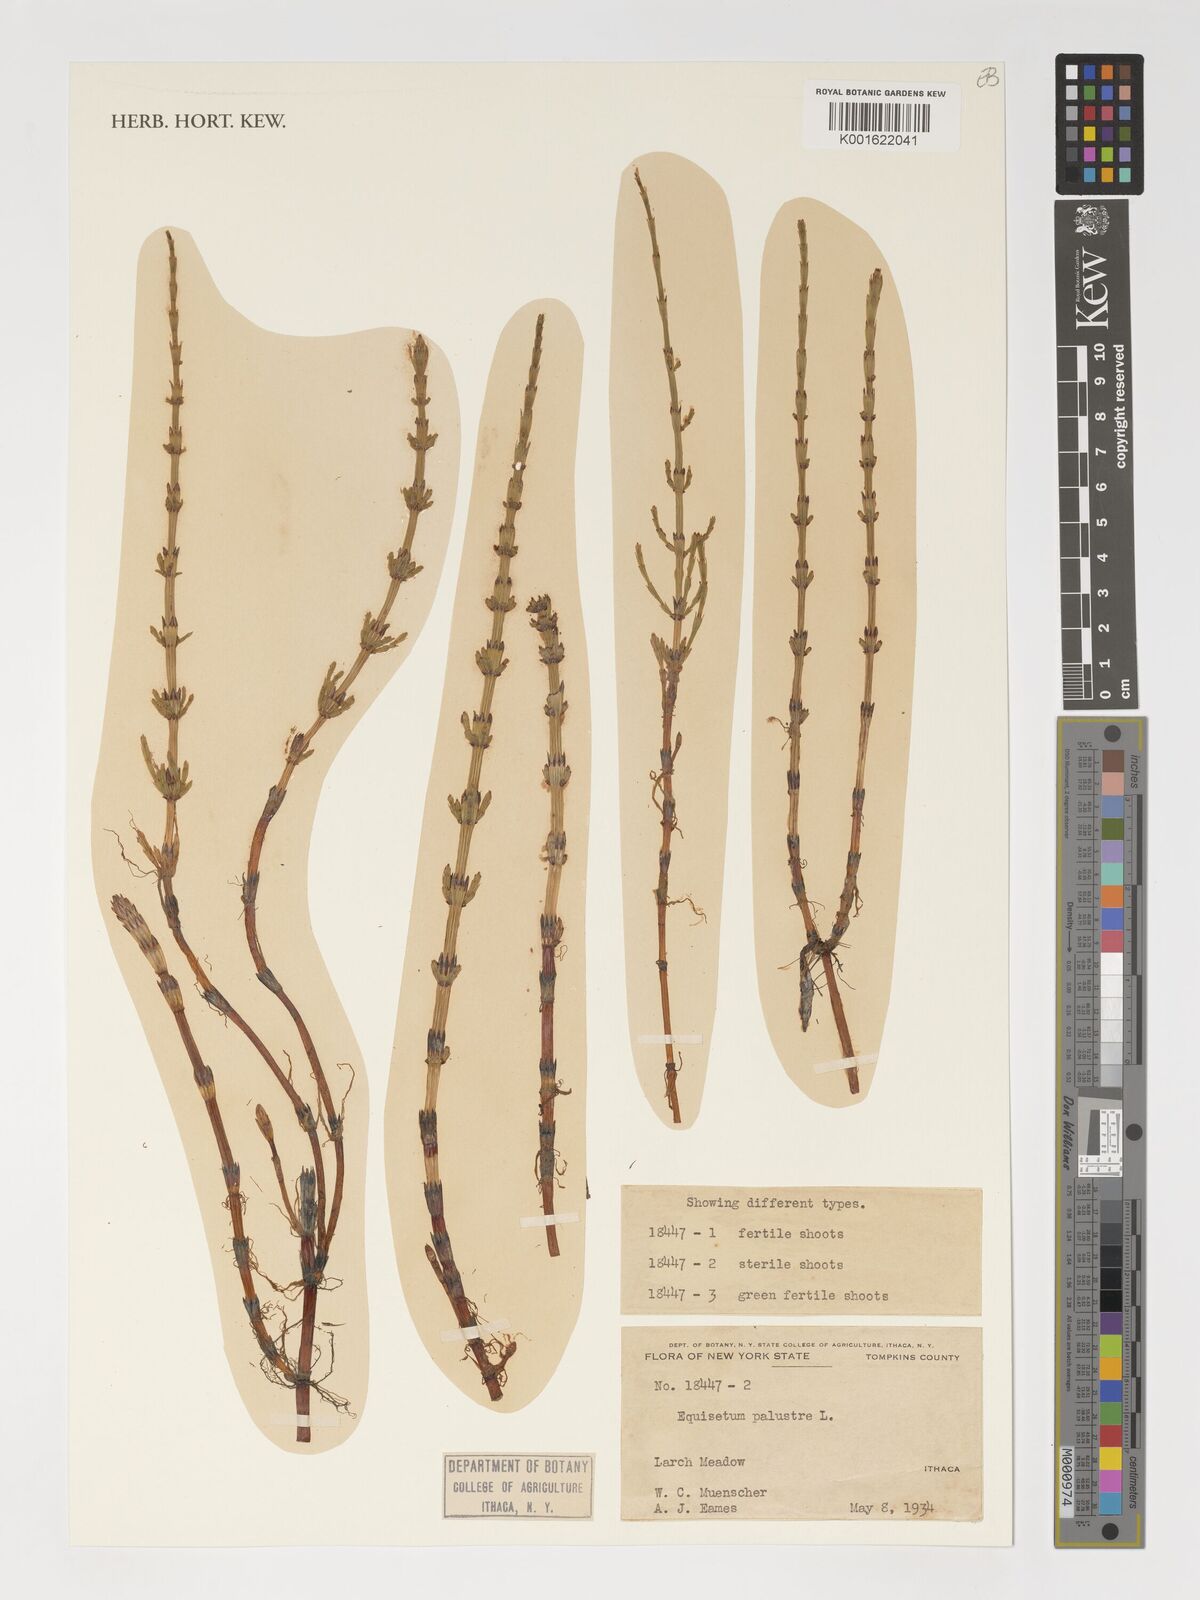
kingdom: Plantae
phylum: Tracheophyta
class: Polypodiopsida
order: Equisetales
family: Equisetaceae
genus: Equisetum
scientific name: Equisetum palustre
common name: Marsh horsetail
